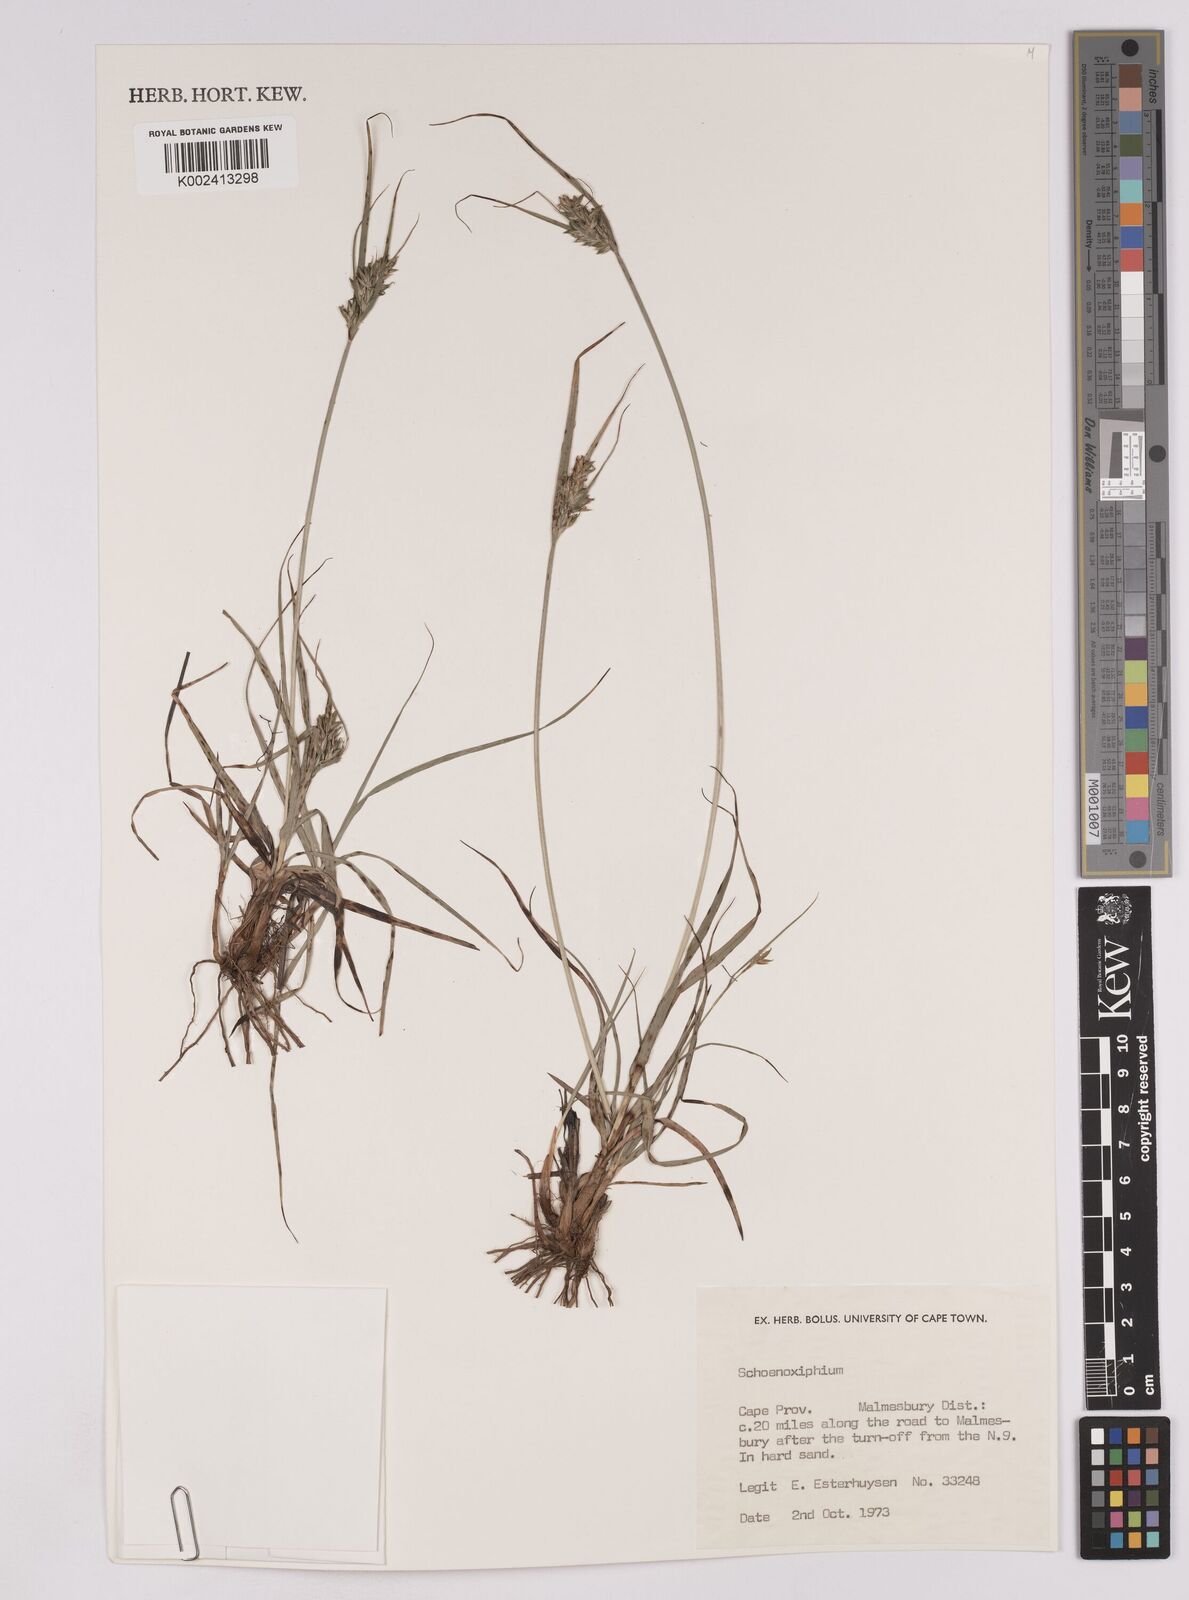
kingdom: Plantae
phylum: Tracheophyta
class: Liliopsida
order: Poales
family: Cyperaceae
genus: Carex
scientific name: Carex
